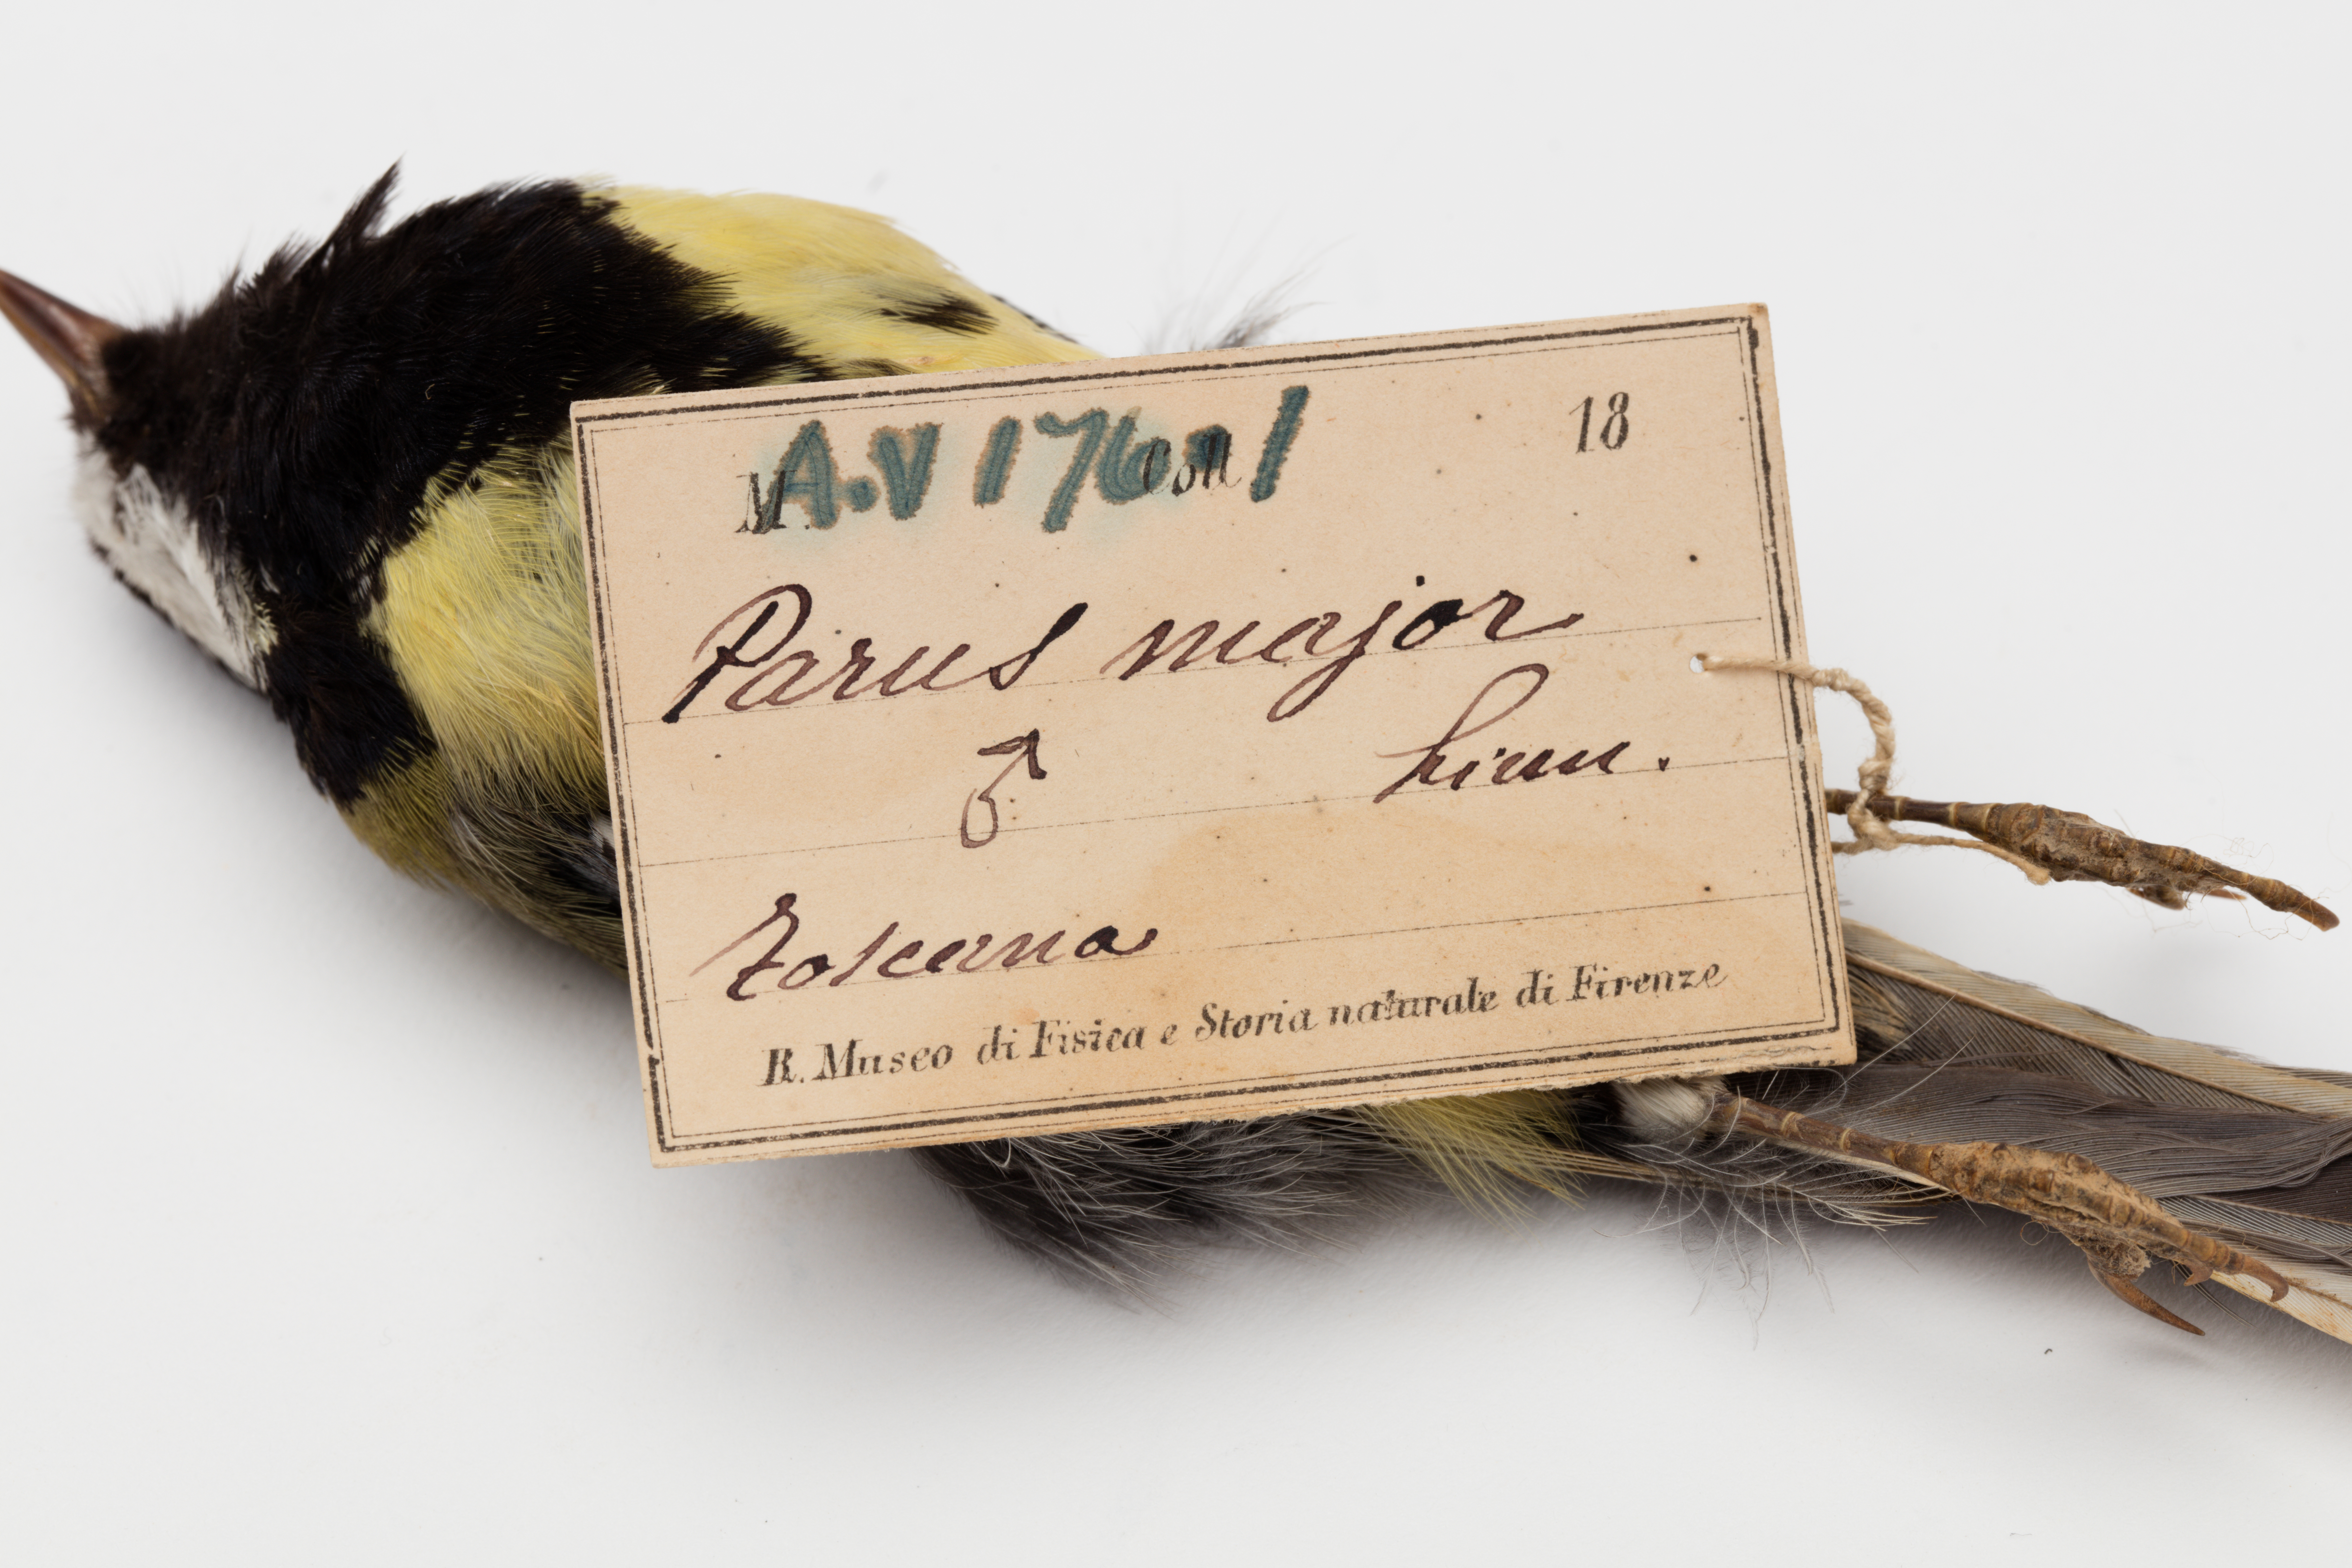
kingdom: Animalia
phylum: Chordata
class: Aves
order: Passeriformes
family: Paridae
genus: Parus
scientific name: Parus major
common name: Great tit
